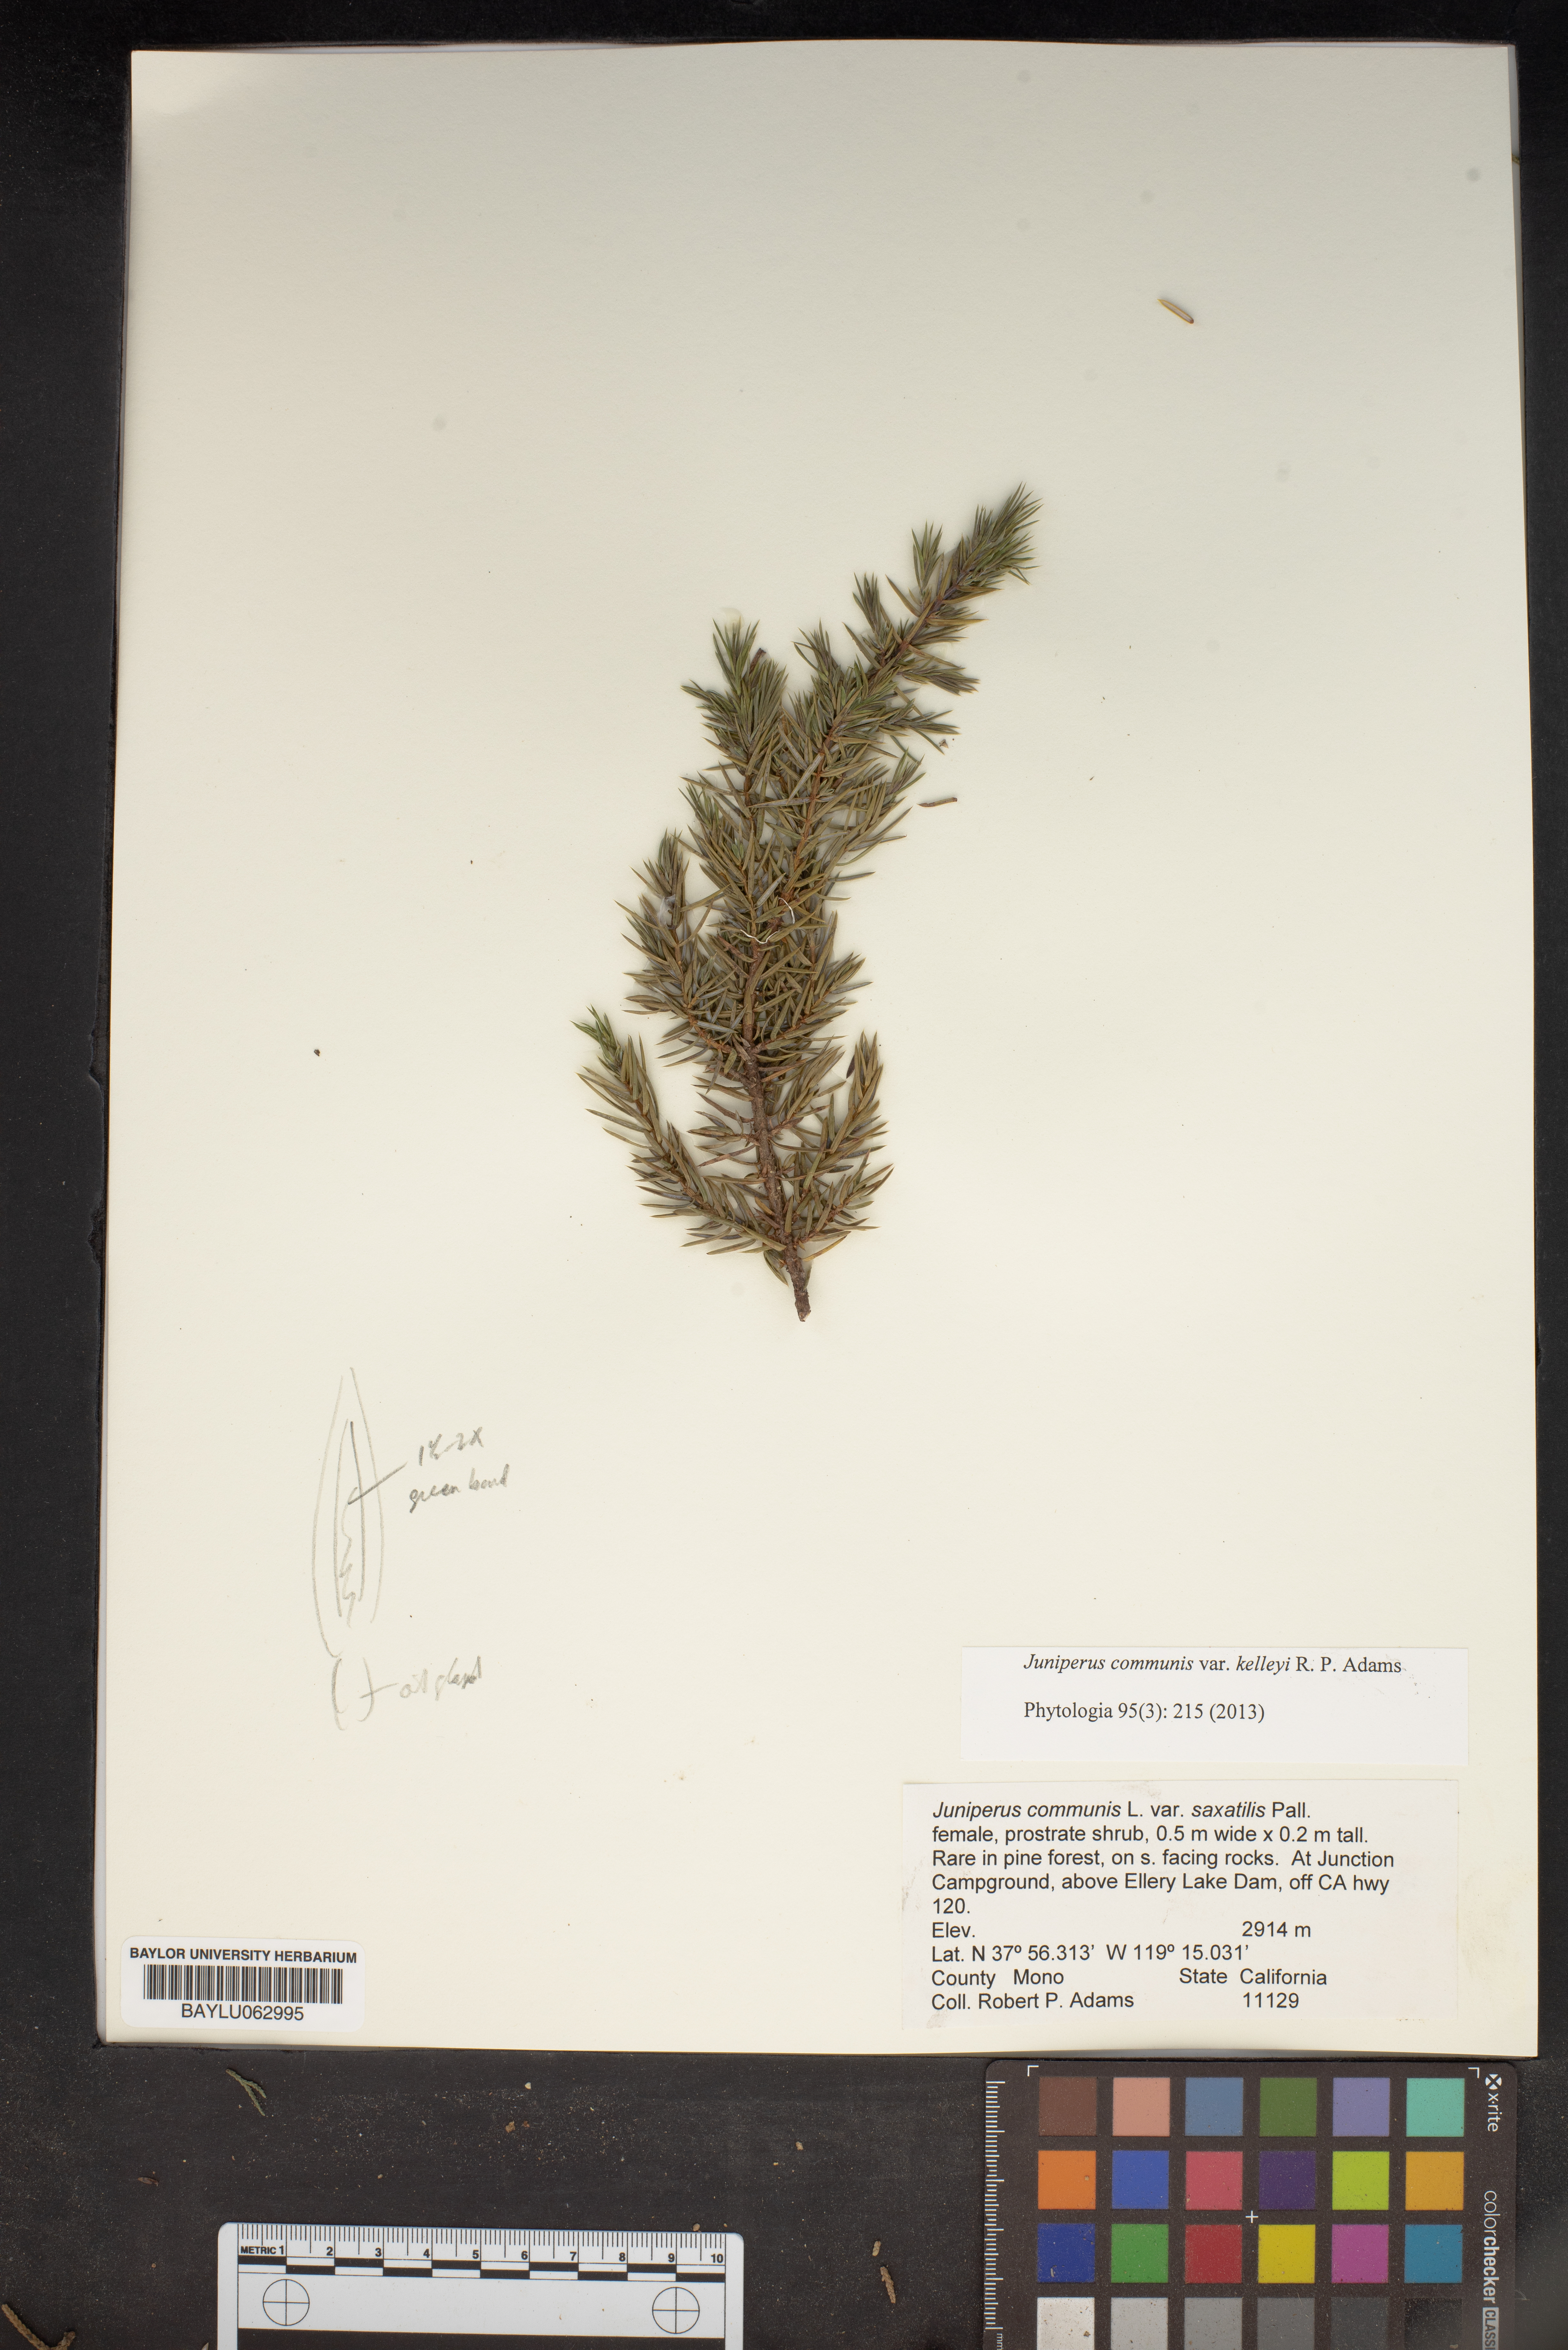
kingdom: Plantae
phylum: Tracheophyta
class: Pinopsida
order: Pinales
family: Cupressaceae
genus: Juniperus
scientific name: Juniperus communis
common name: Common juniper
